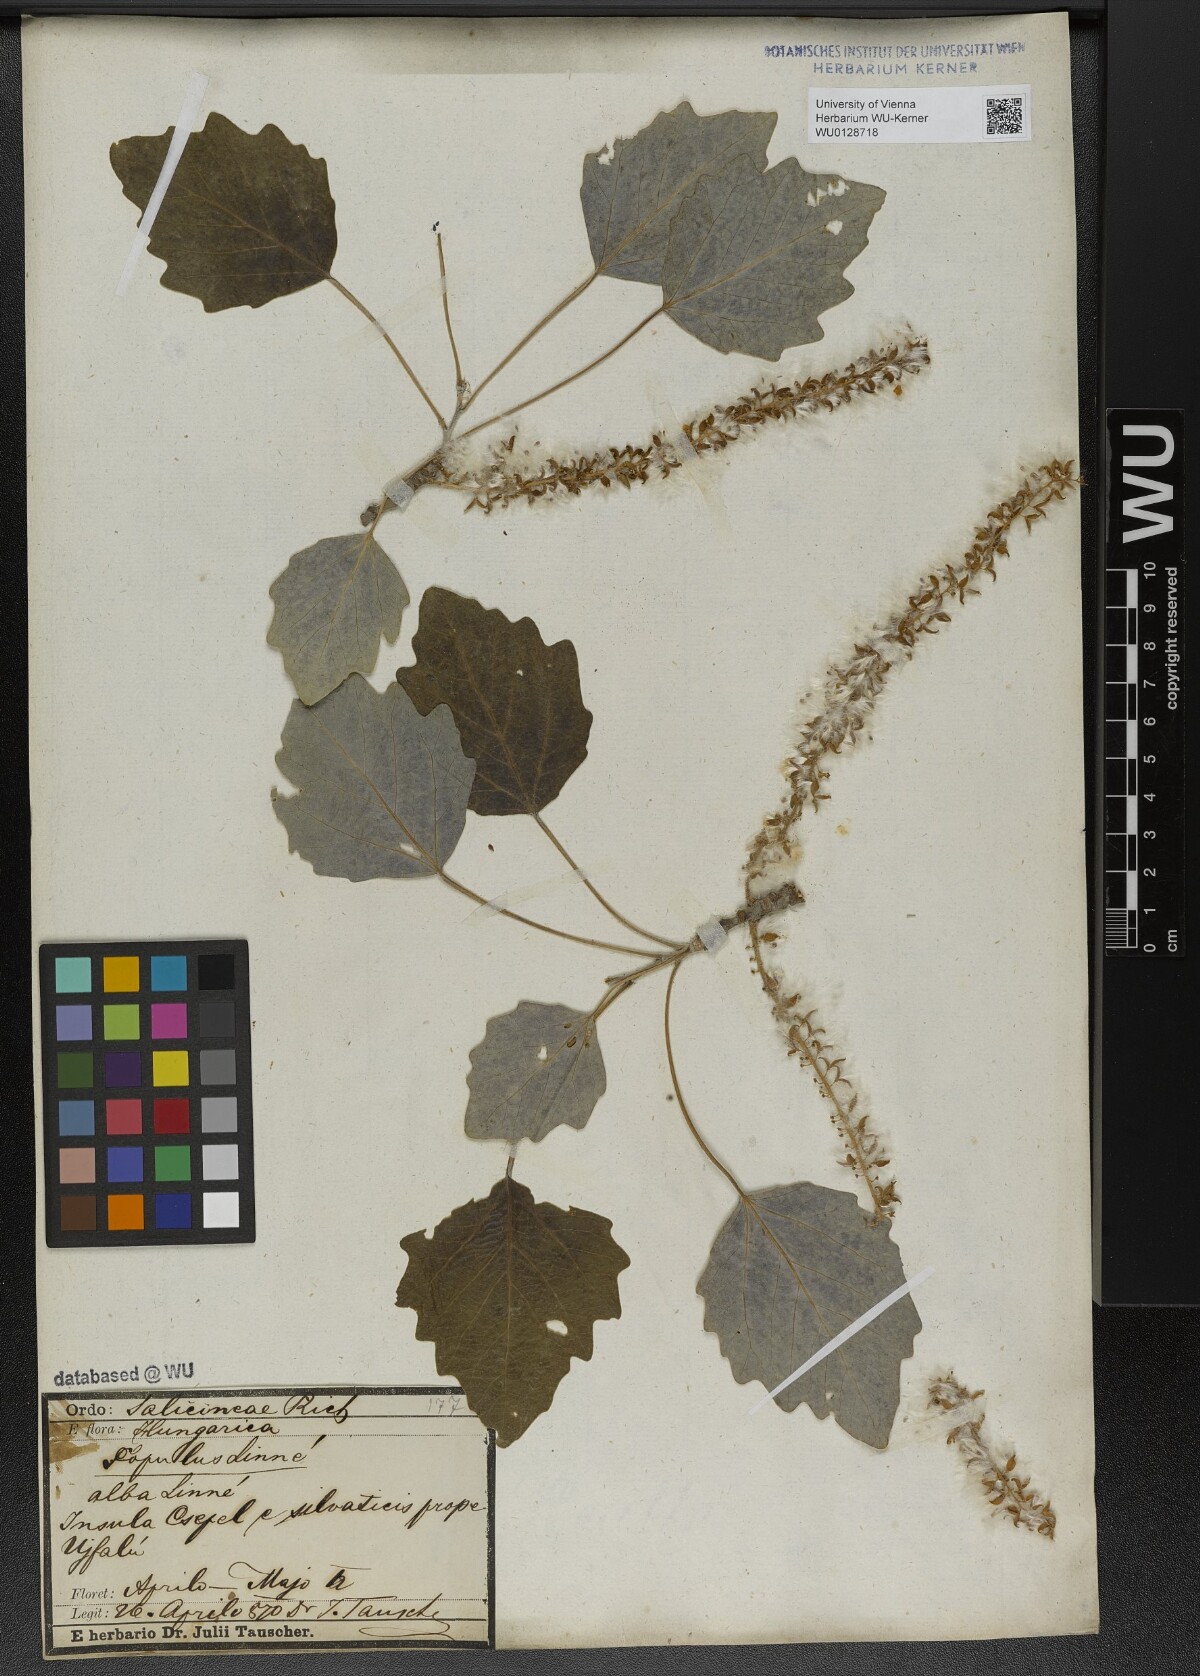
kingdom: Plantae
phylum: Tracheophyta
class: Magnoliopsida
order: Malpighiales
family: Salicaceae
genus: Populus
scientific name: Populus alba
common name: White poplar
